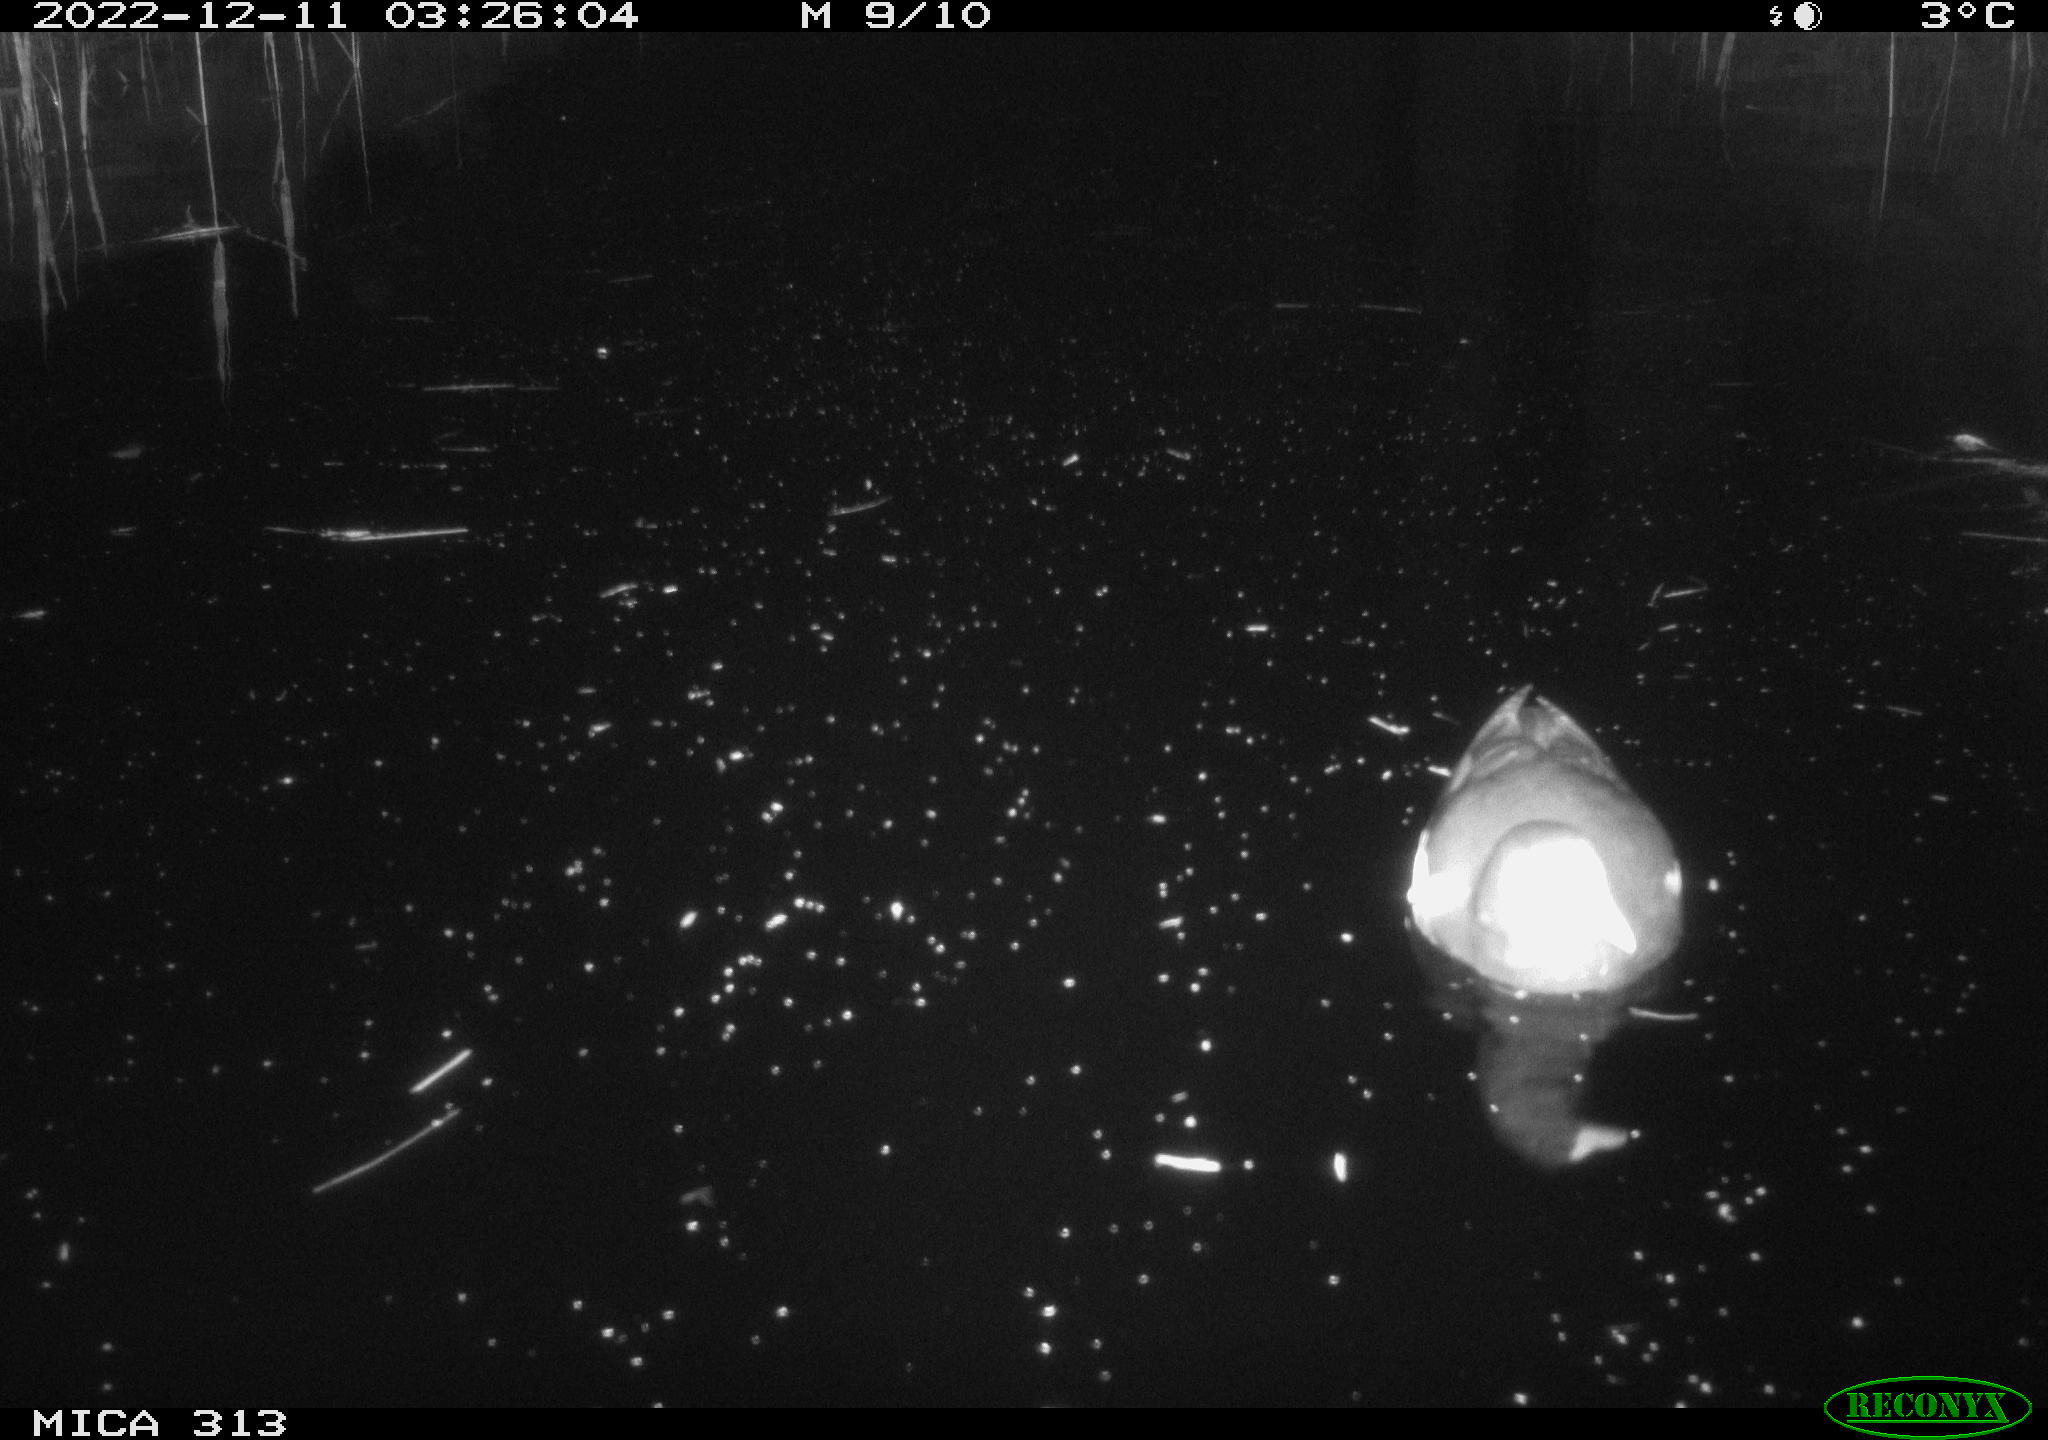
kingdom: Animalia
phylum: Chordata
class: Aves
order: Anseriformes
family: Anatidae
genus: Anas
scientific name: Anas
